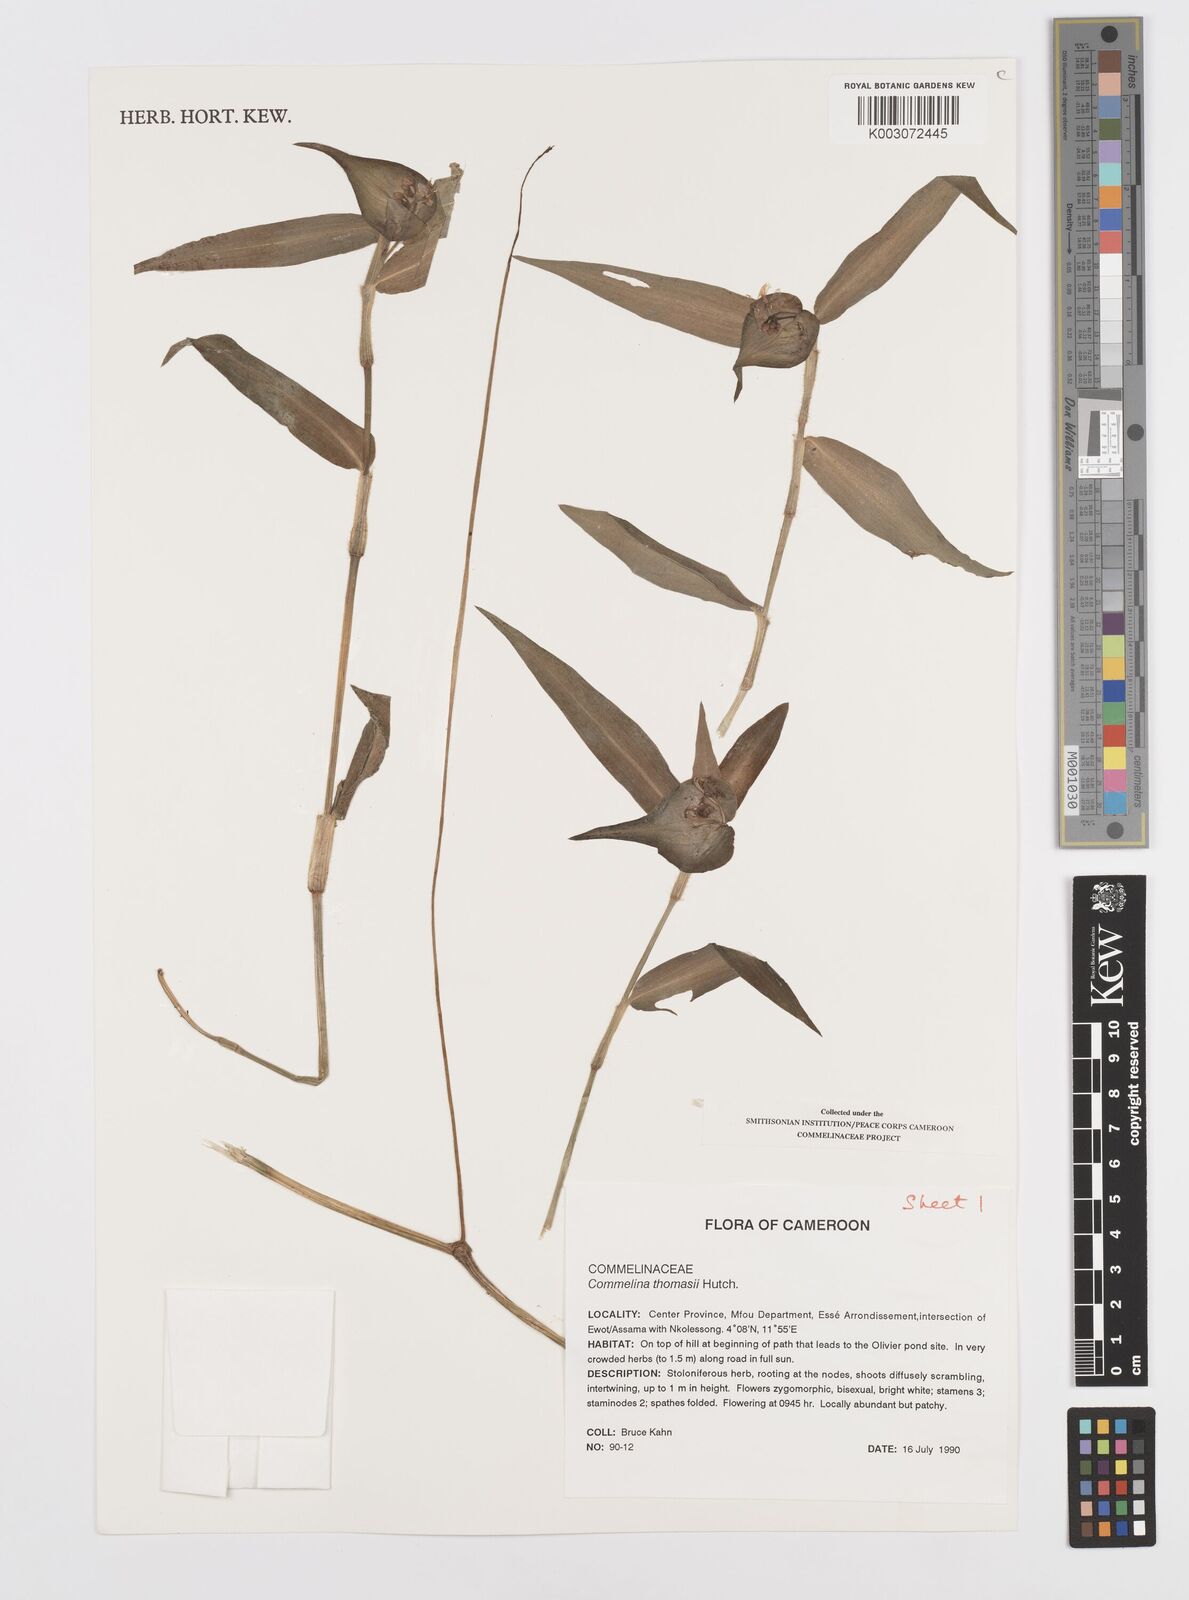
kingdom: Plantae
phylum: Tracheophyta
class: Liliopsida
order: Commelinales
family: Commelinaceae
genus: Commelina
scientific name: Commelina acutispatha
